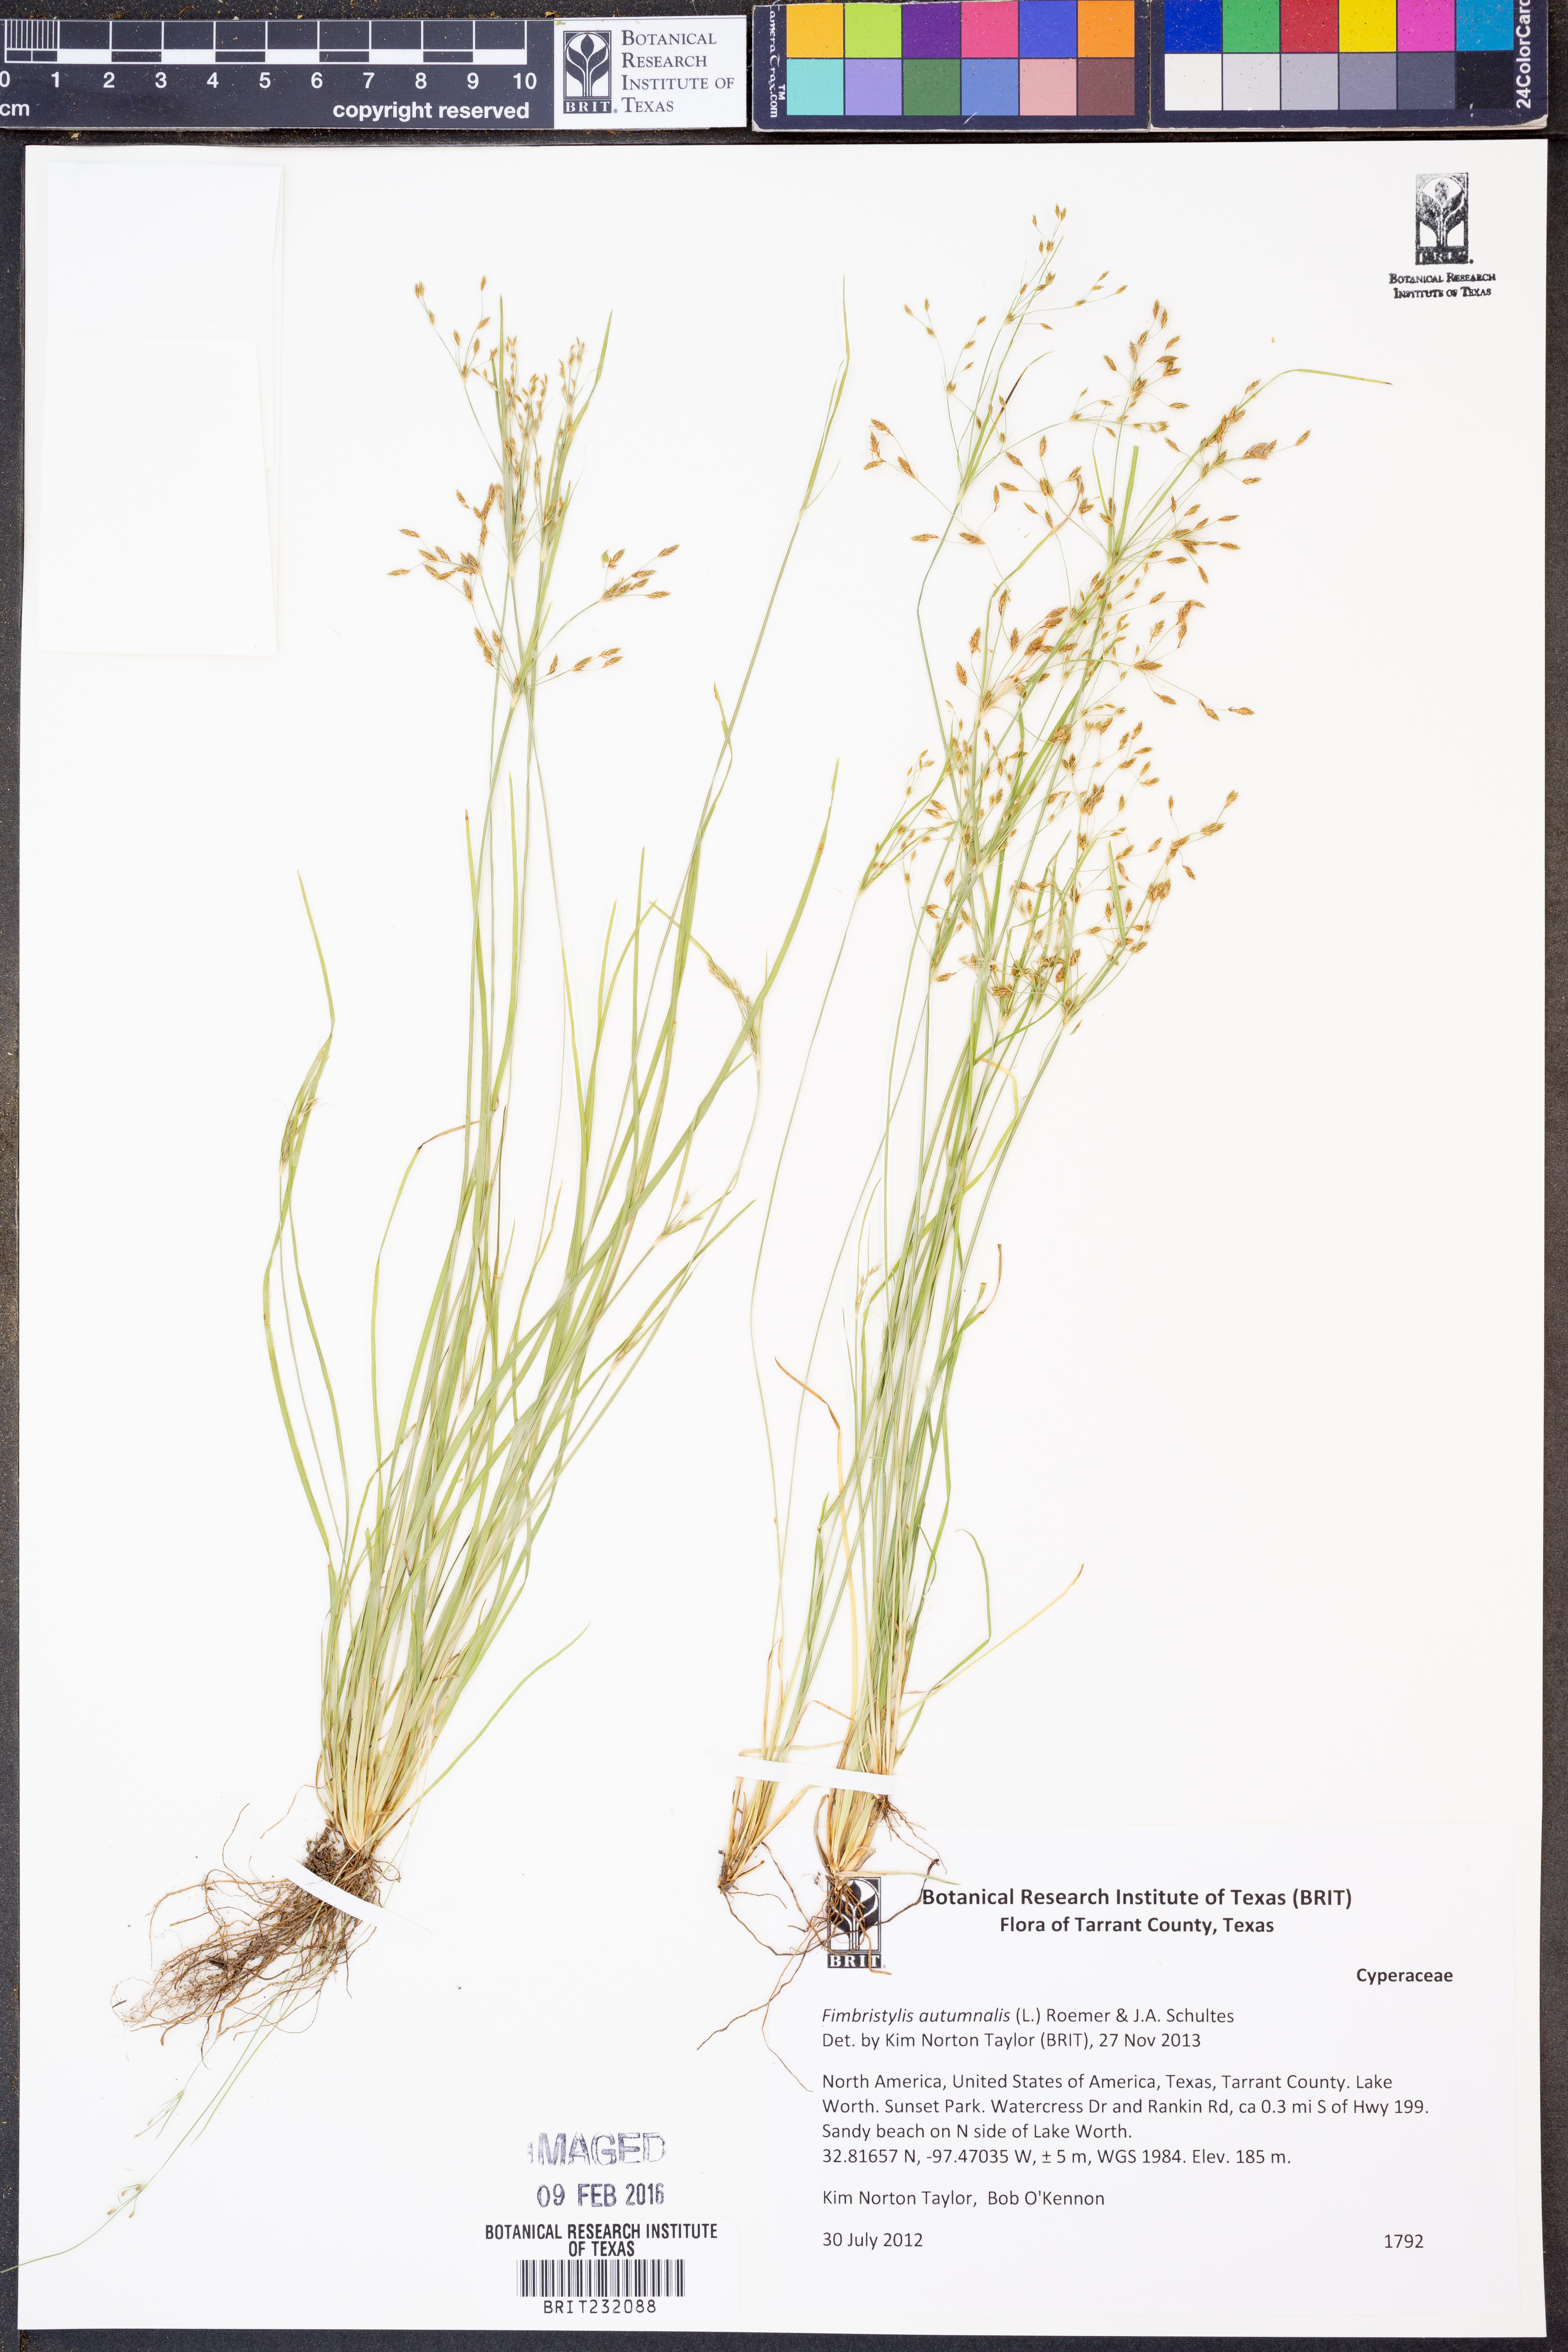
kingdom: Plantae
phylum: Tracheophyta
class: Liliopsida
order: Poales
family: Cyperaceae
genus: Fimbristylis
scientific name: Fimbristylis autumnalis
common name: Slender fimbristylis
